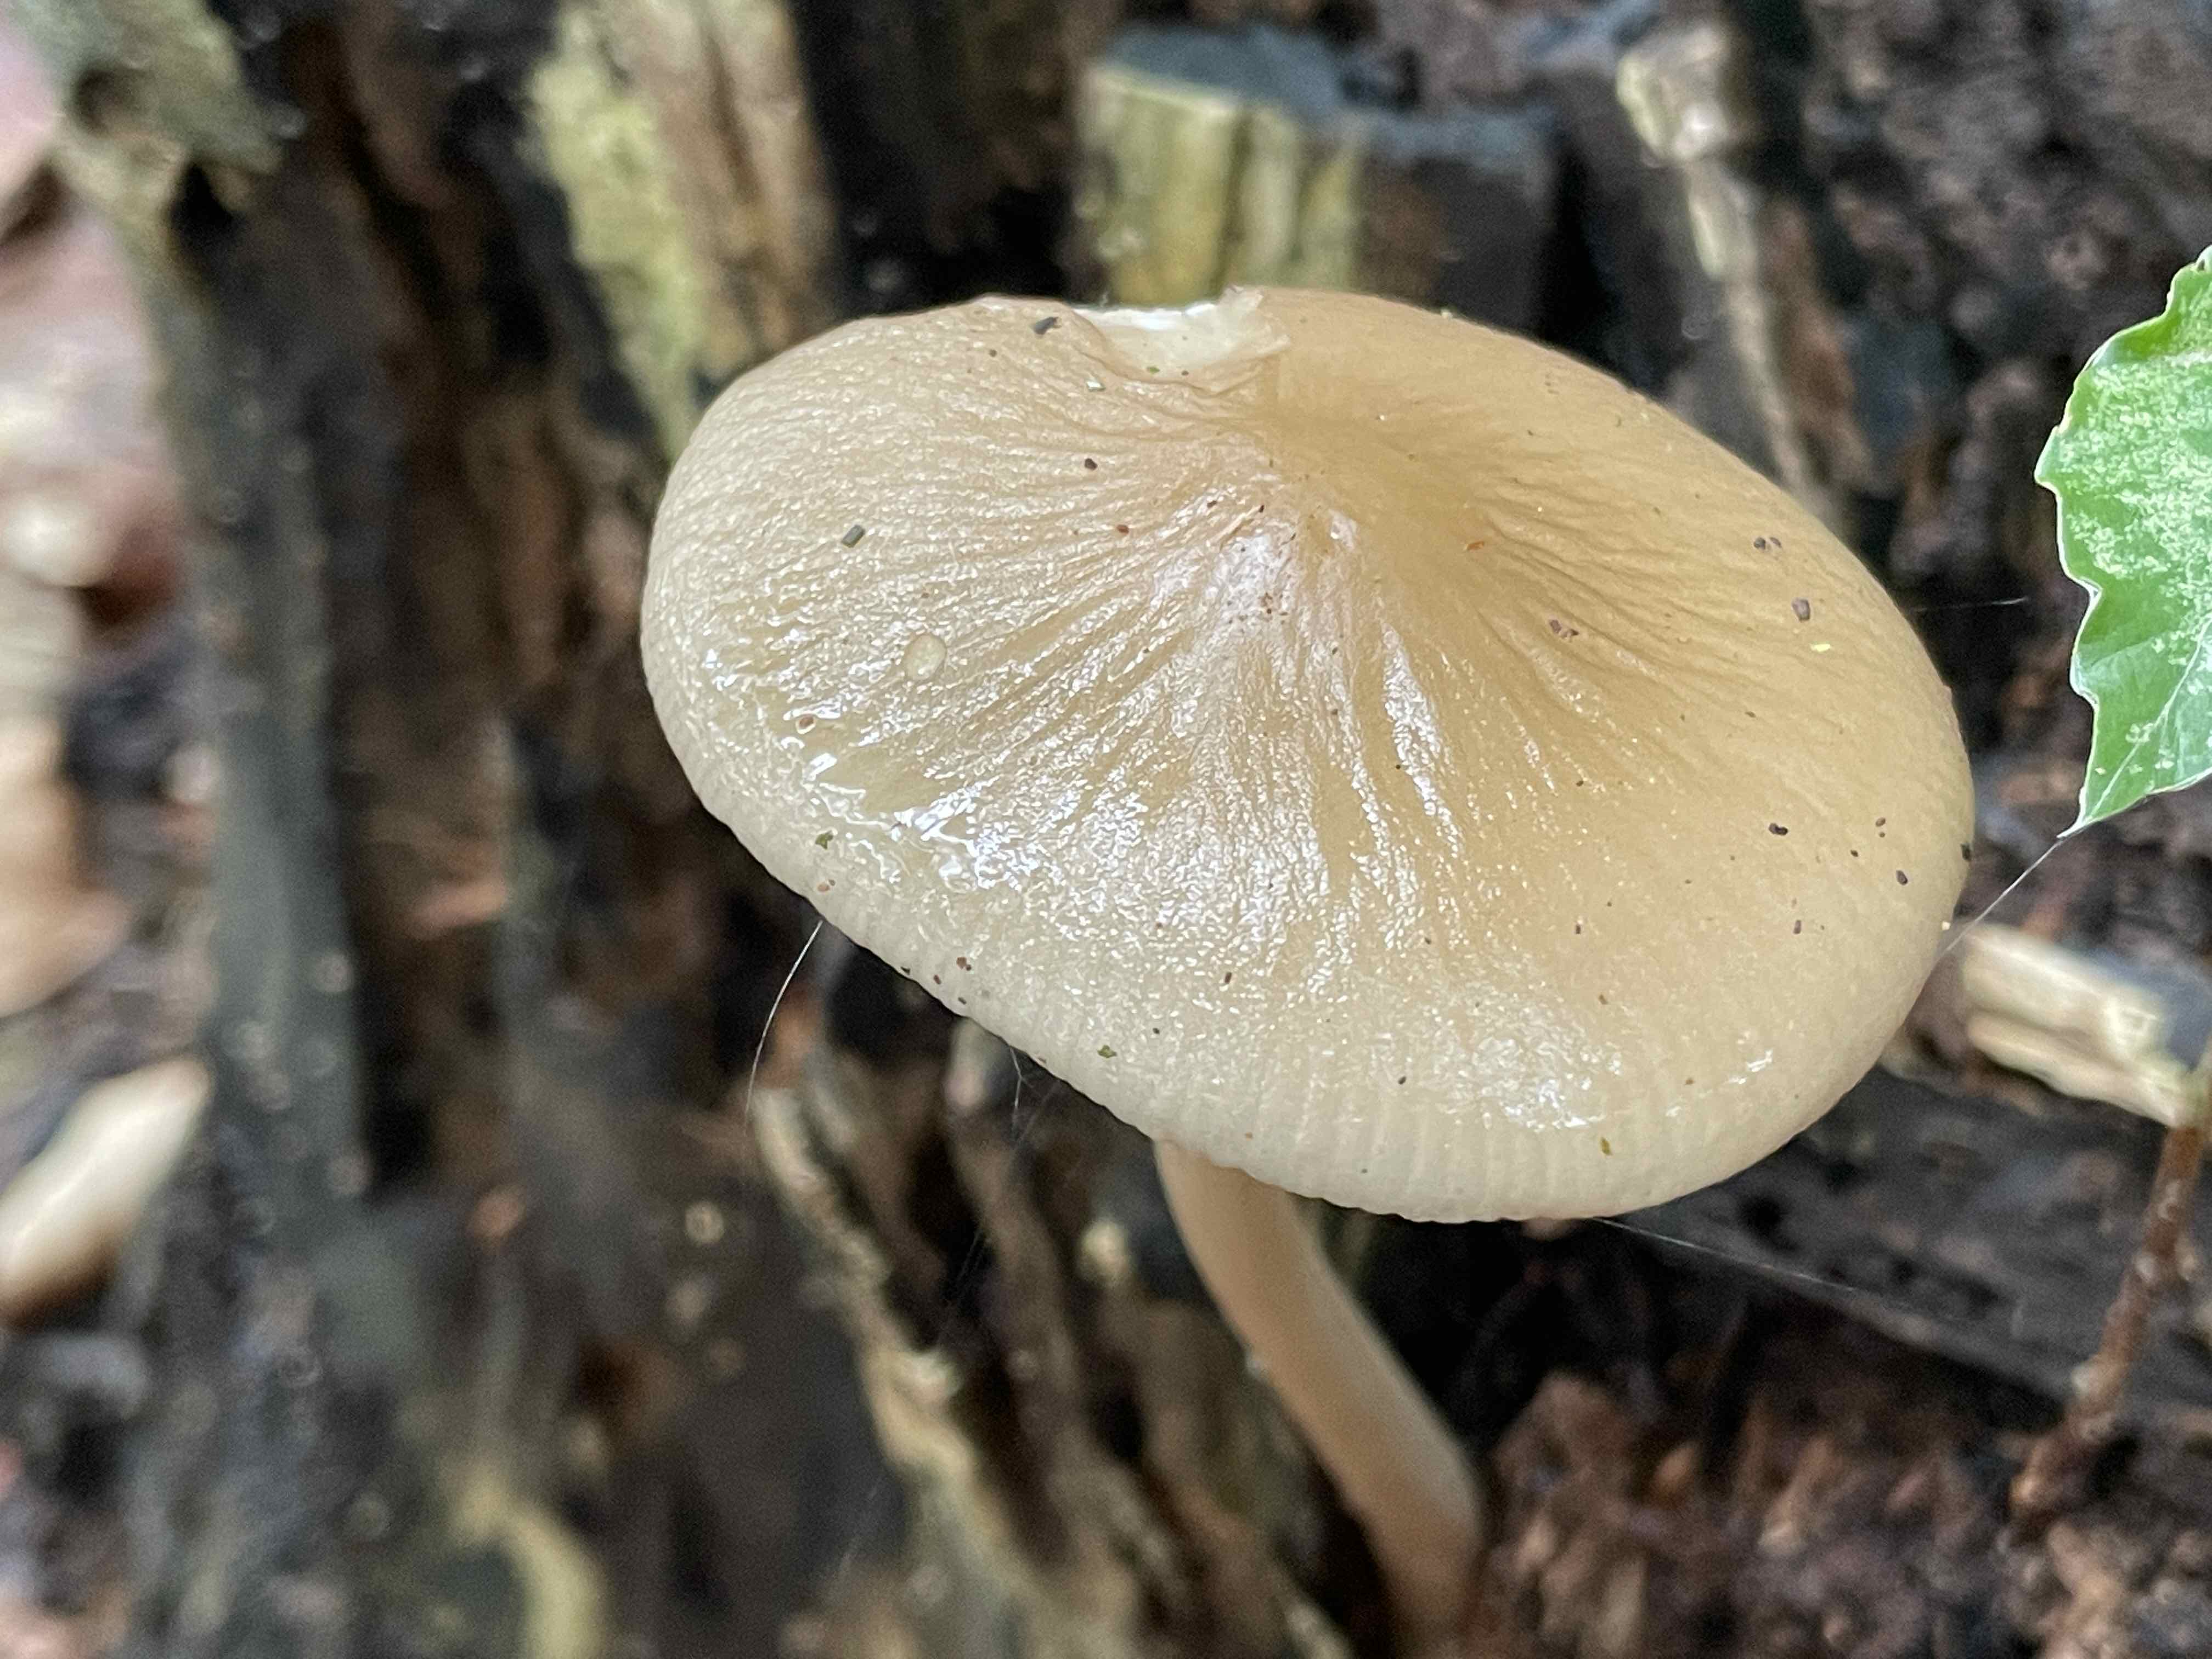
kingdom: Fungi
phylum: Basidiomycota
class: Agaricomycetes
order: Agaricales
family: Physalacriaceae
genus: Hymenopellis
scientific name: Hymenopellis radicata
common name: almindelig pælerodshat
